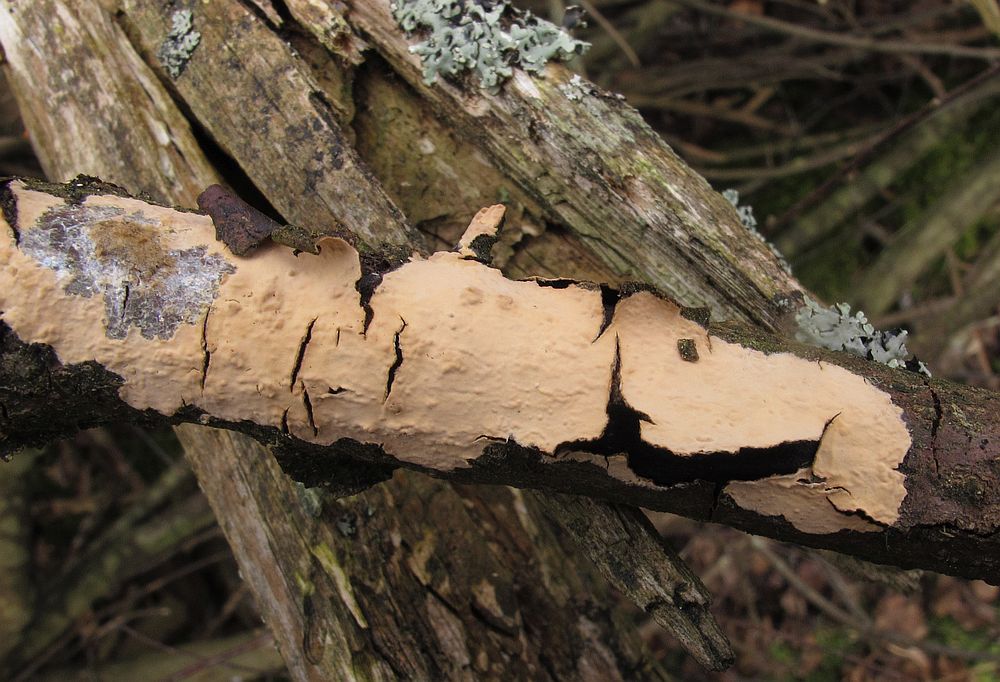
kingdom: Fungi
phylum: Basidiomycota
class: Agaricomycetes
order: Russulales
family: Stereaceae
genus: Stereum
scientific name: Stereum rugosum
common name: rynket lædersvamp
